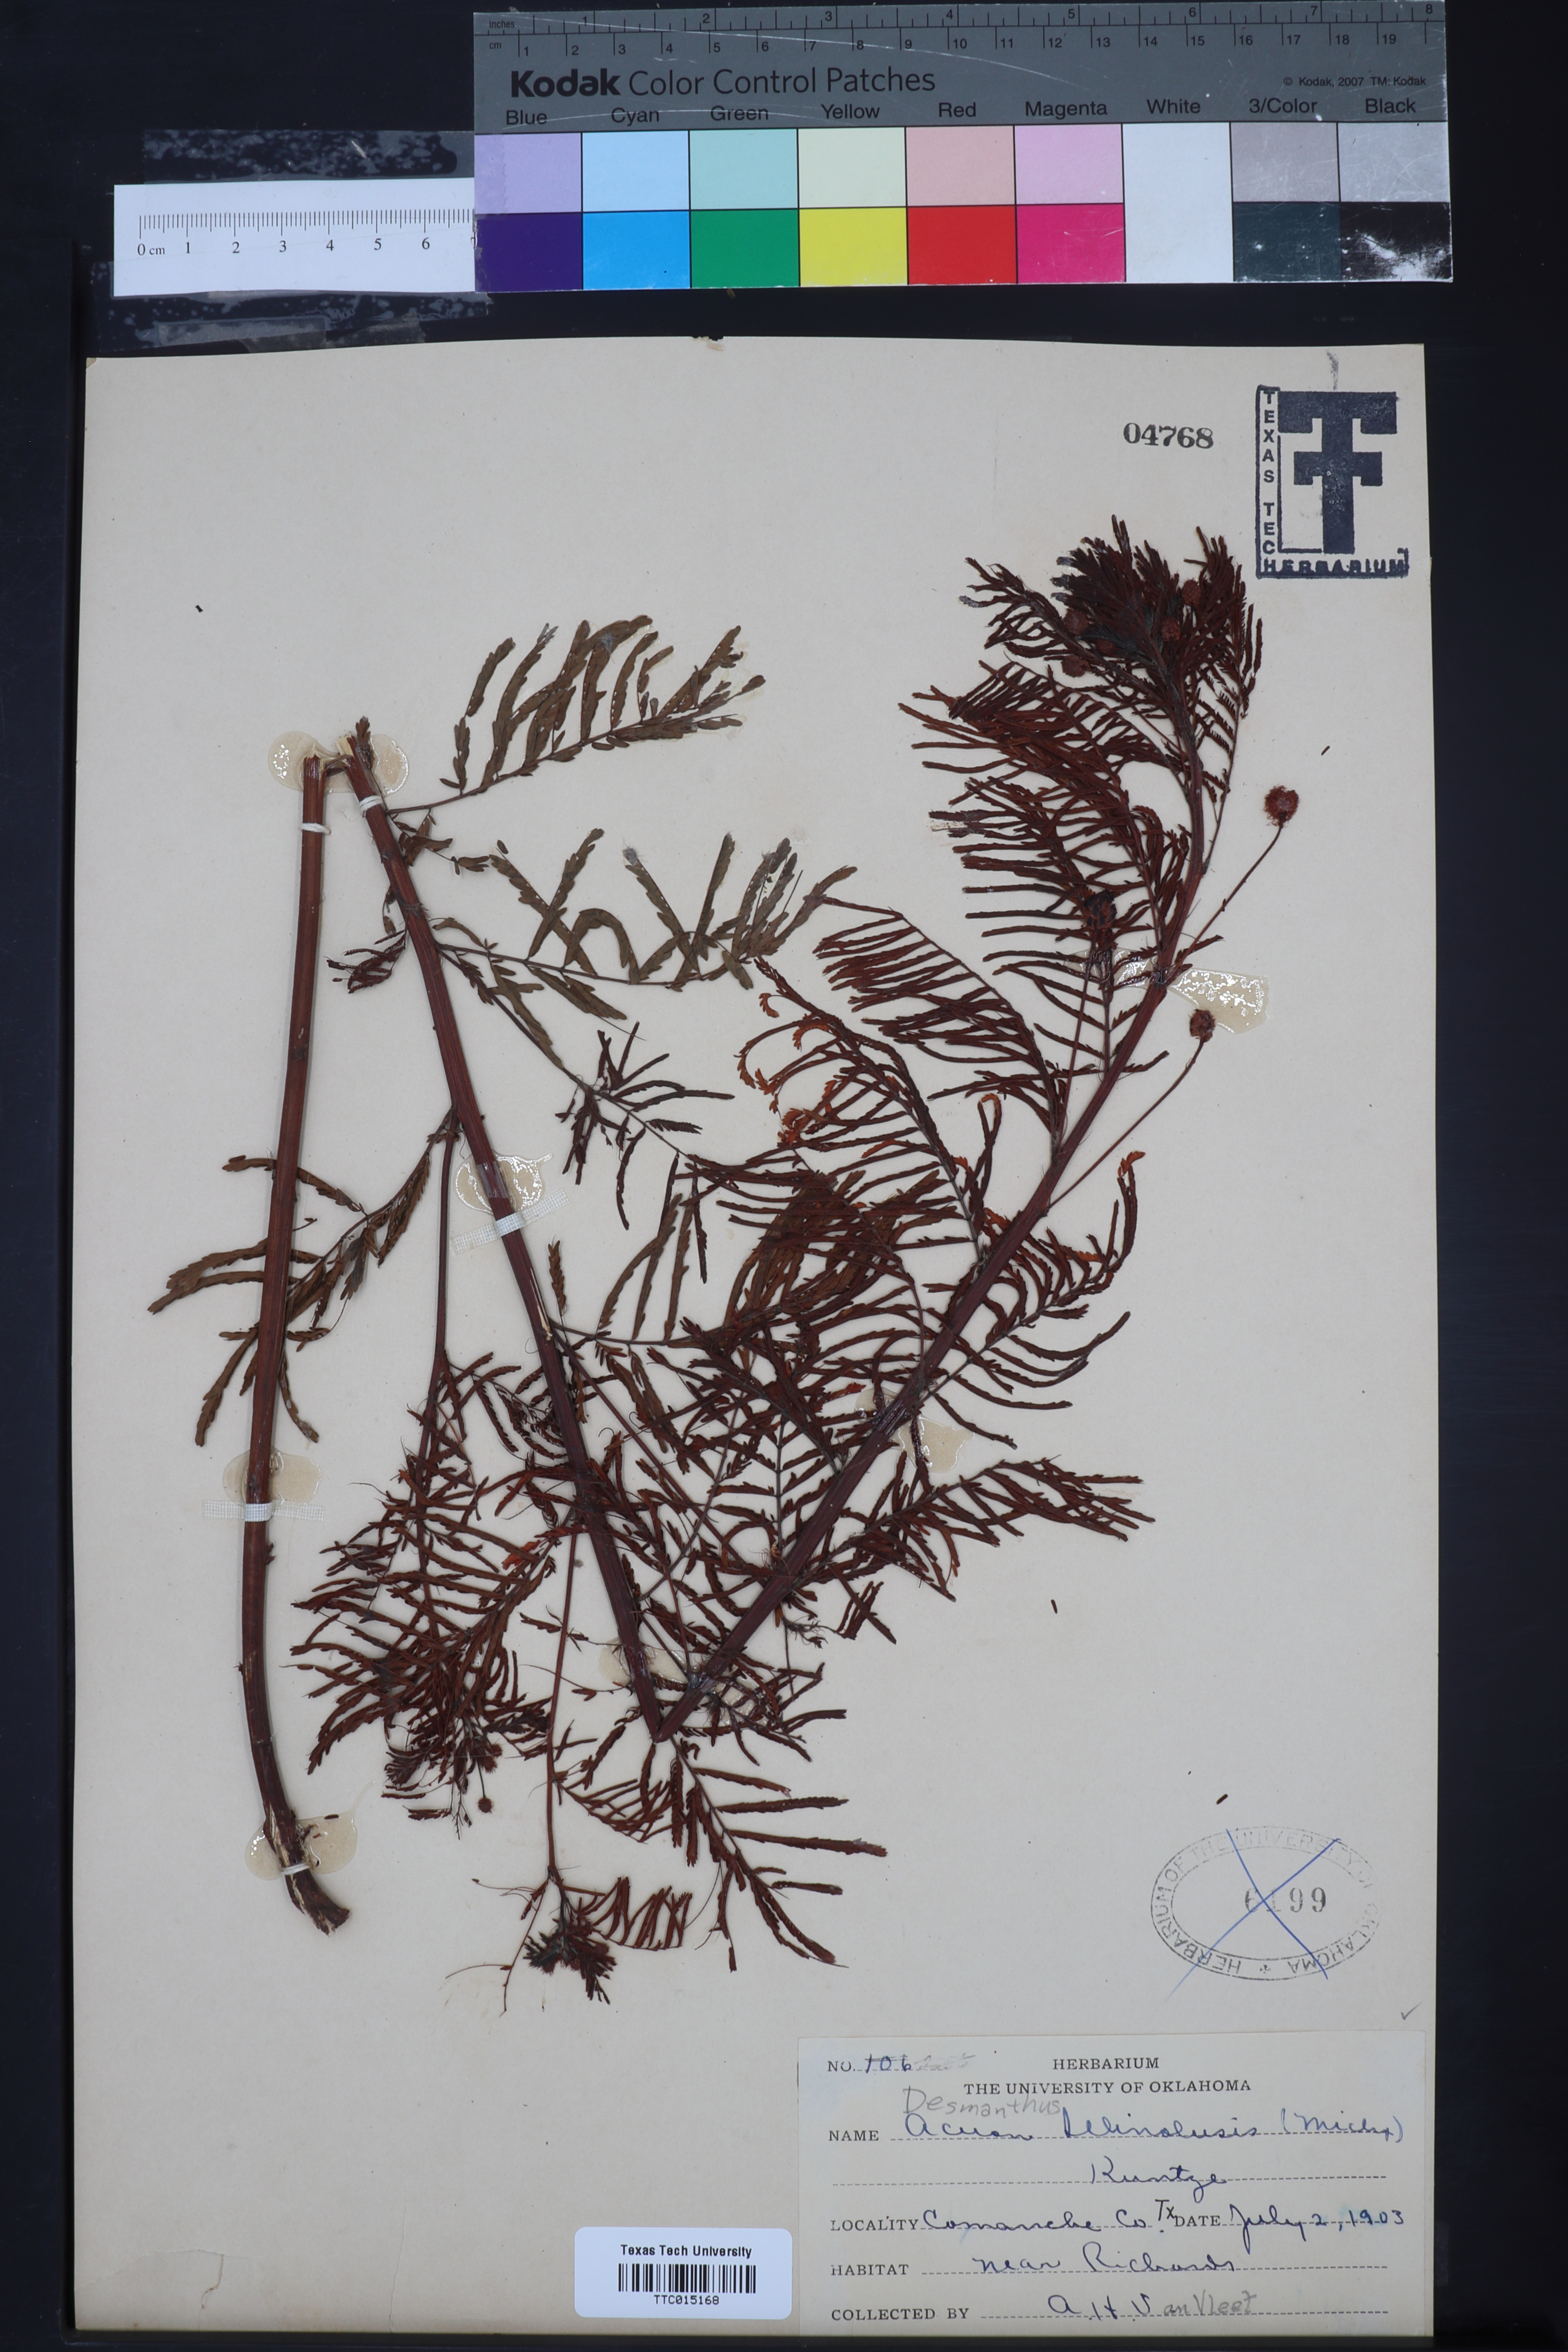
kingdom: Plantae
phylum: Tracheophyta
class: Magnoliopsida
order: Fabales
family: Fabaceae
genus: Desmanthus
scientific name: Desmanthus illinoensis
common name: Illinois bundle-flower
